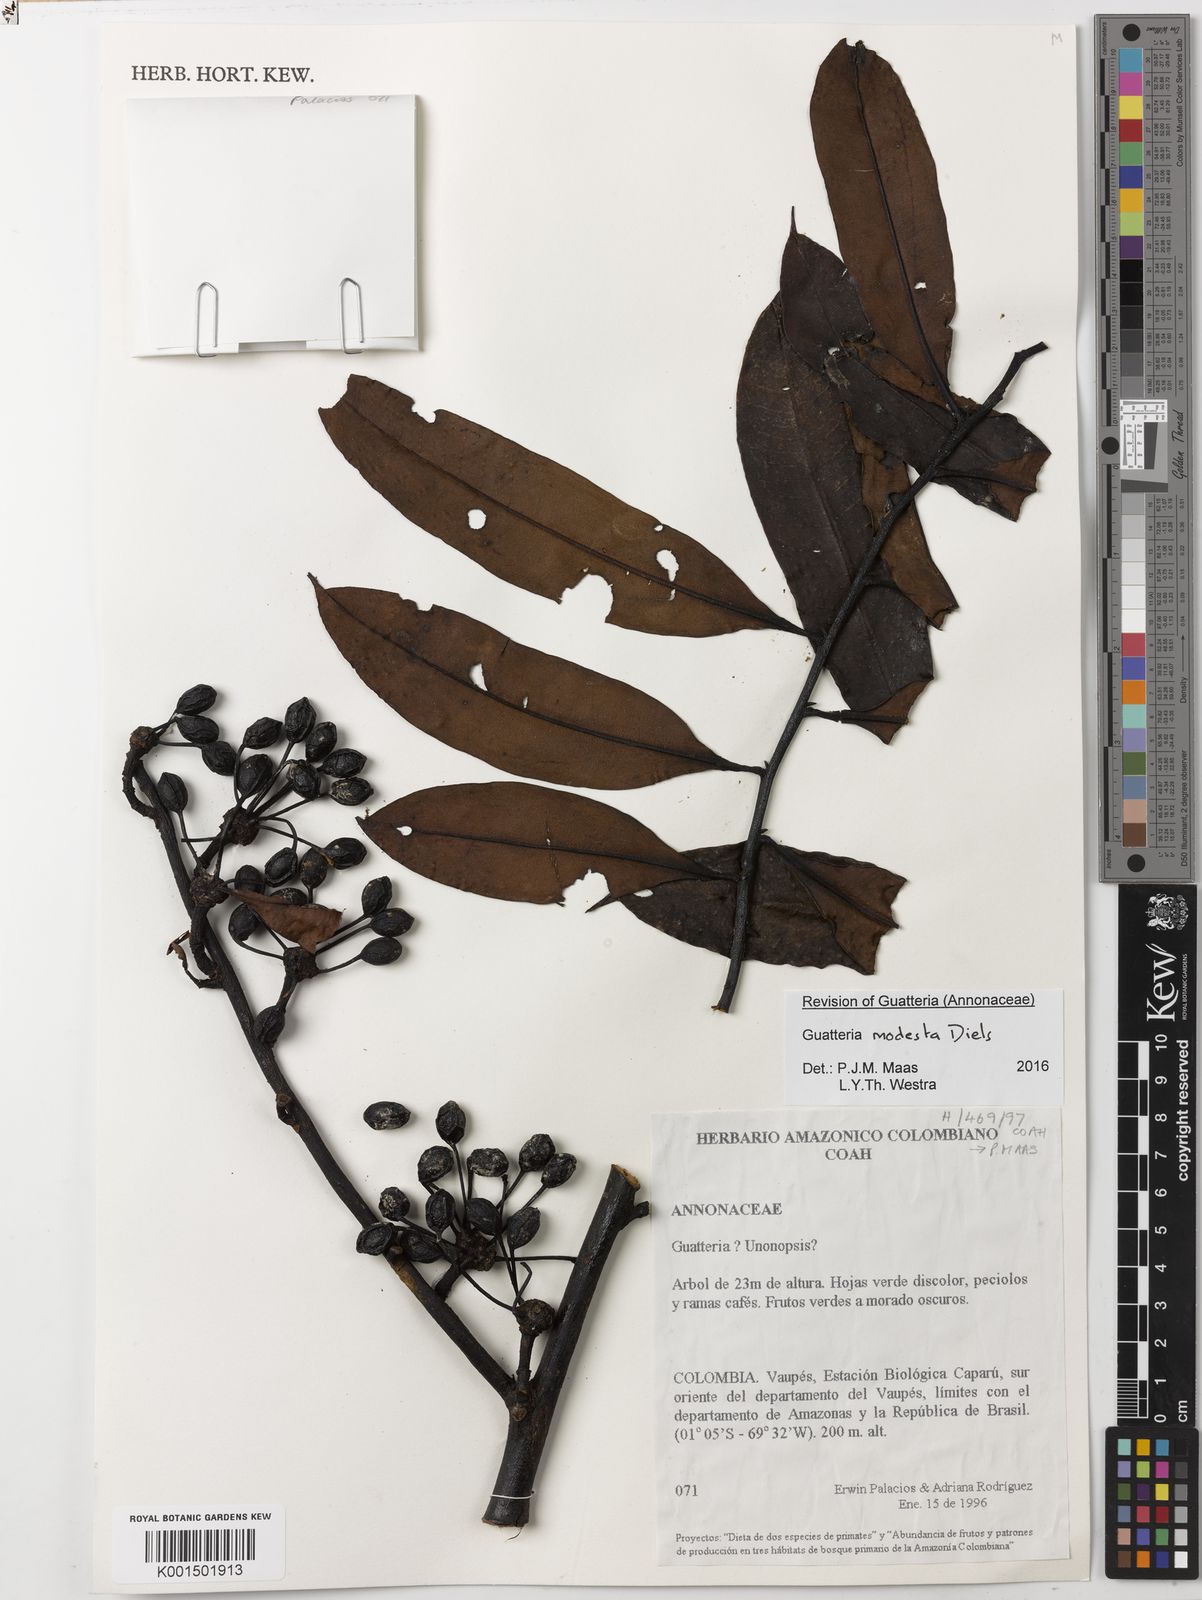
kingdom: Plantae
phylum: Tracheophyta
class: Magnoliopsida
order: Magnoliales
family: Annonaceae
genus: Guatteria
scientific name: Guatteria modesta
